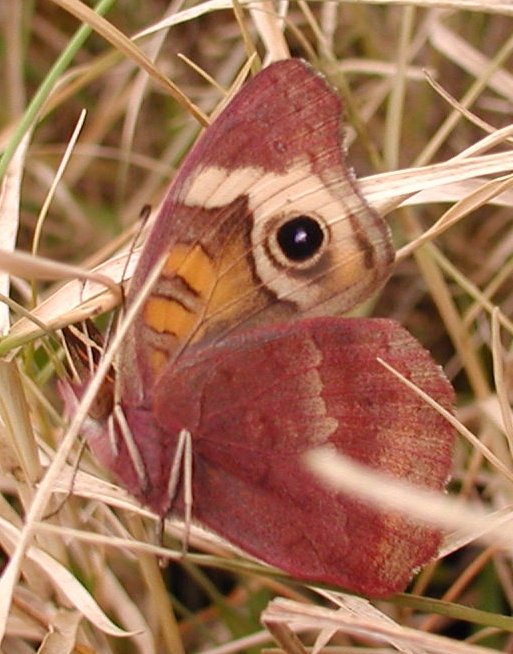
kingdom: Animalia
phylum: Arthropoda
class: Insecta
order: Lepidoptera
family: Nymphalidae
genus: Junonia
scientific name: Junonia coenia
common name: Common Buckeye
